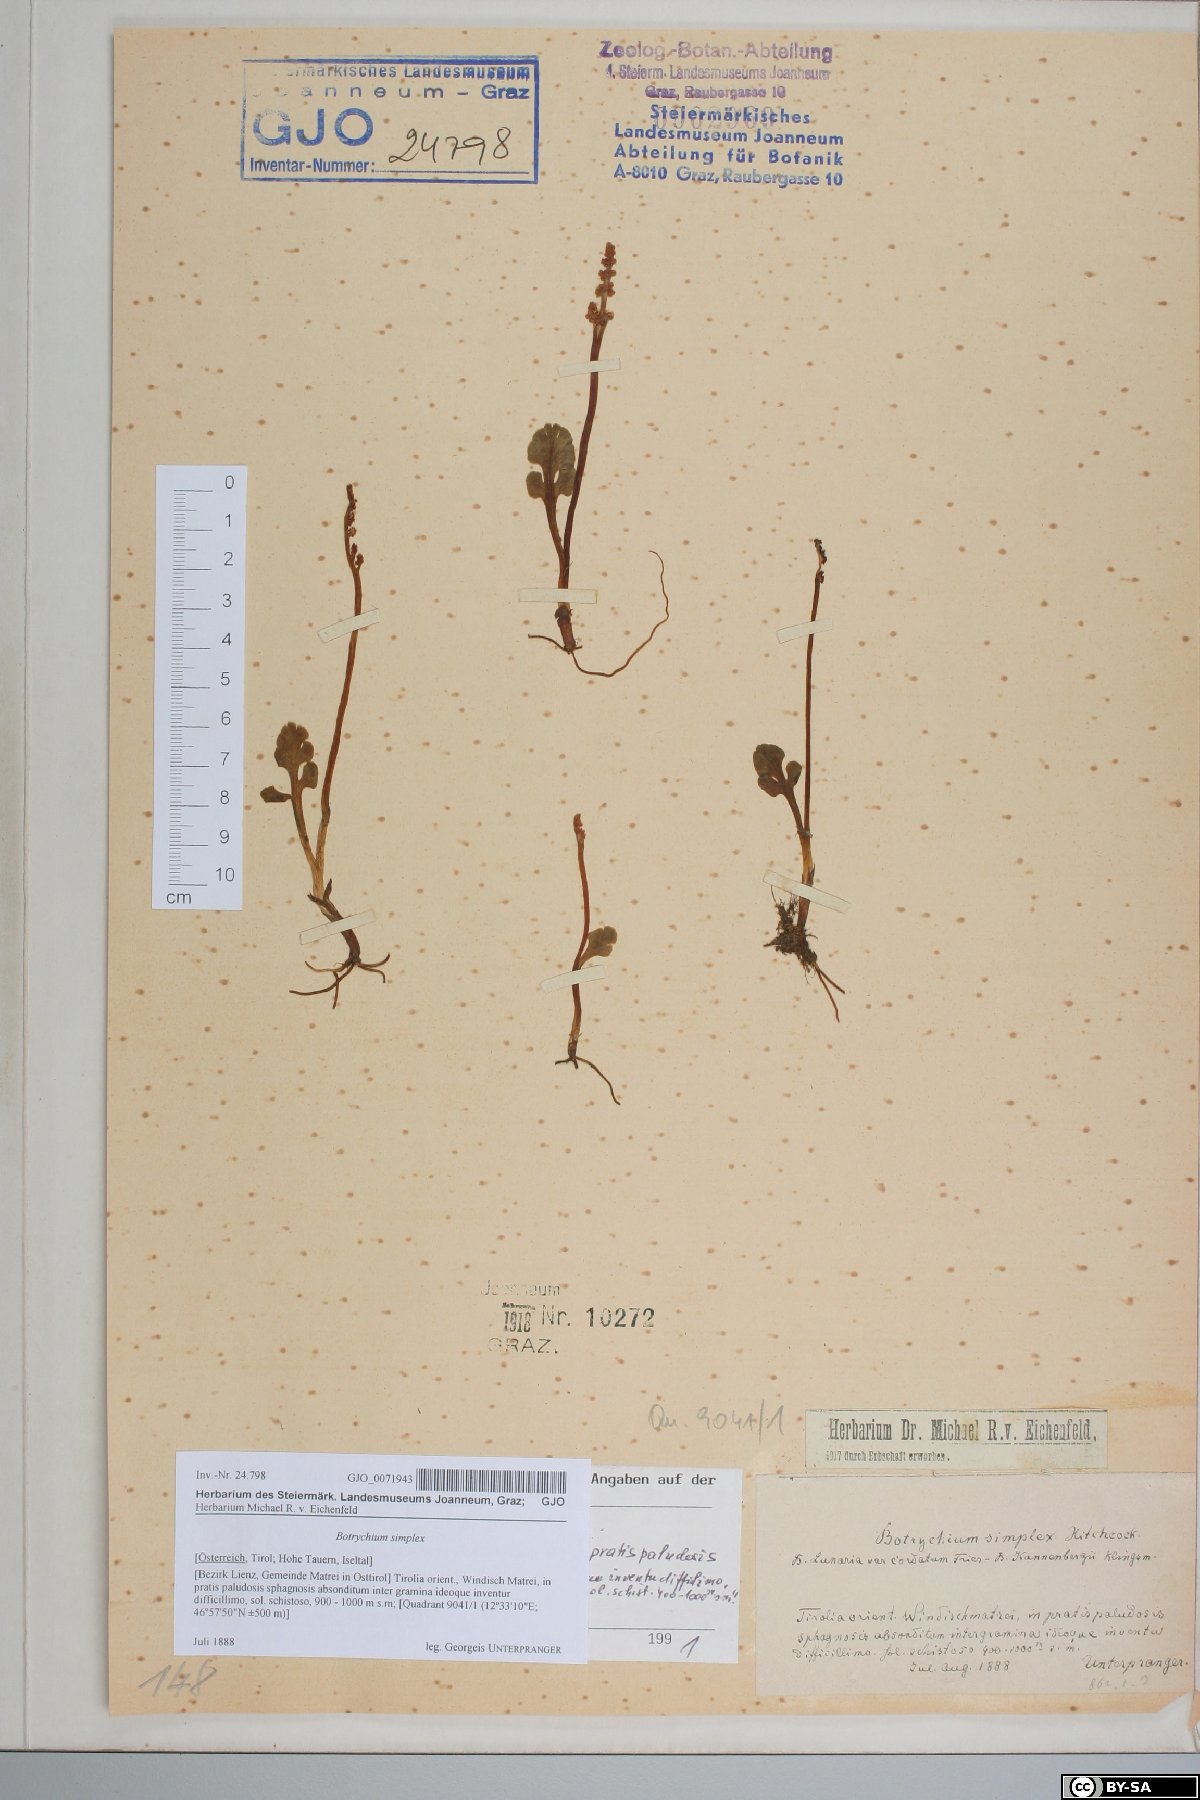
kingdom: Plantae
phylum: Tracheophyta
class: Polypodiopsida
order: Ophioglossales
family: Ophioglossaceae
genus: Botrychium
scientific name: Botrychium simplex
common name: Least moonwort
